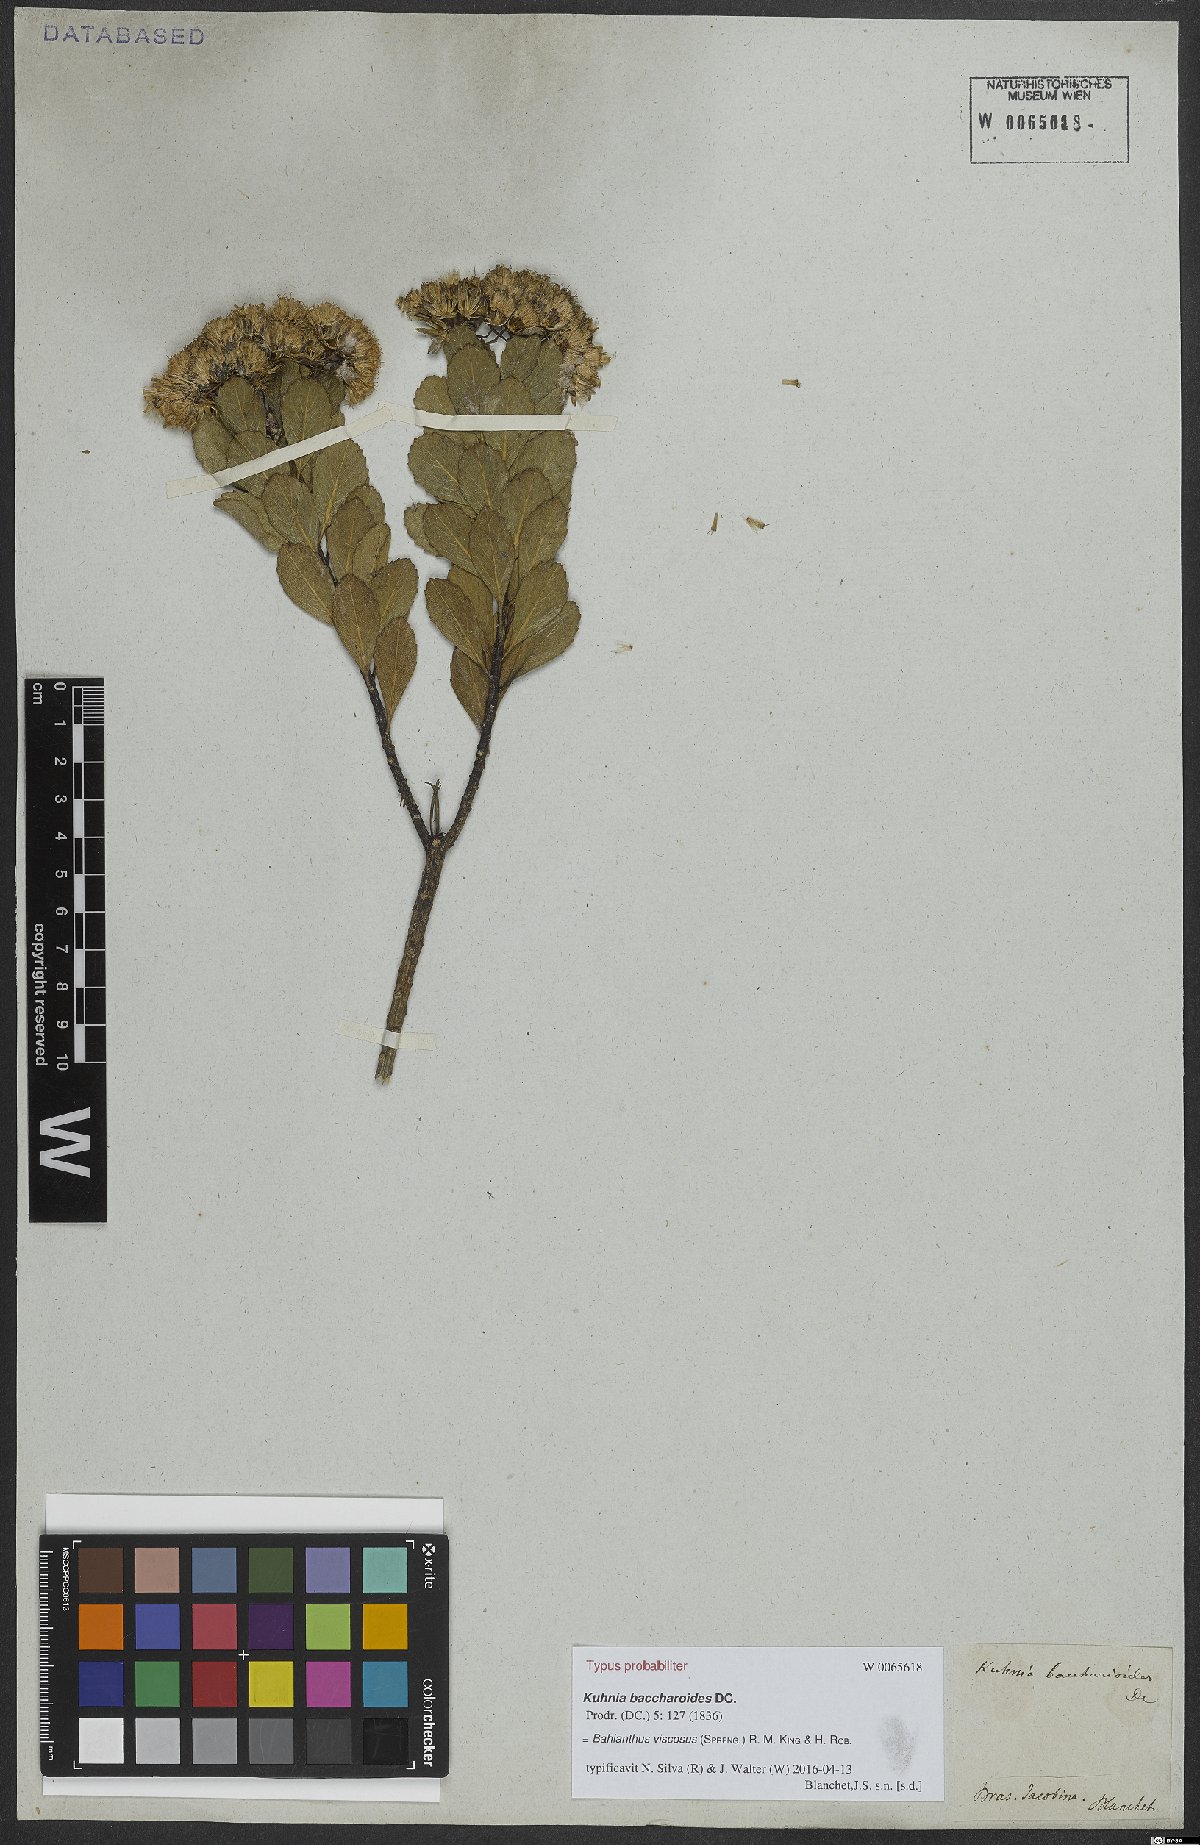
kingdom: Plantae
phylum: Tracheophyta
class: Magnoliopsida
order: Asterales
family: Asteraceae
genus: Bahianthus
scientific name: Bahianthus viscosus
